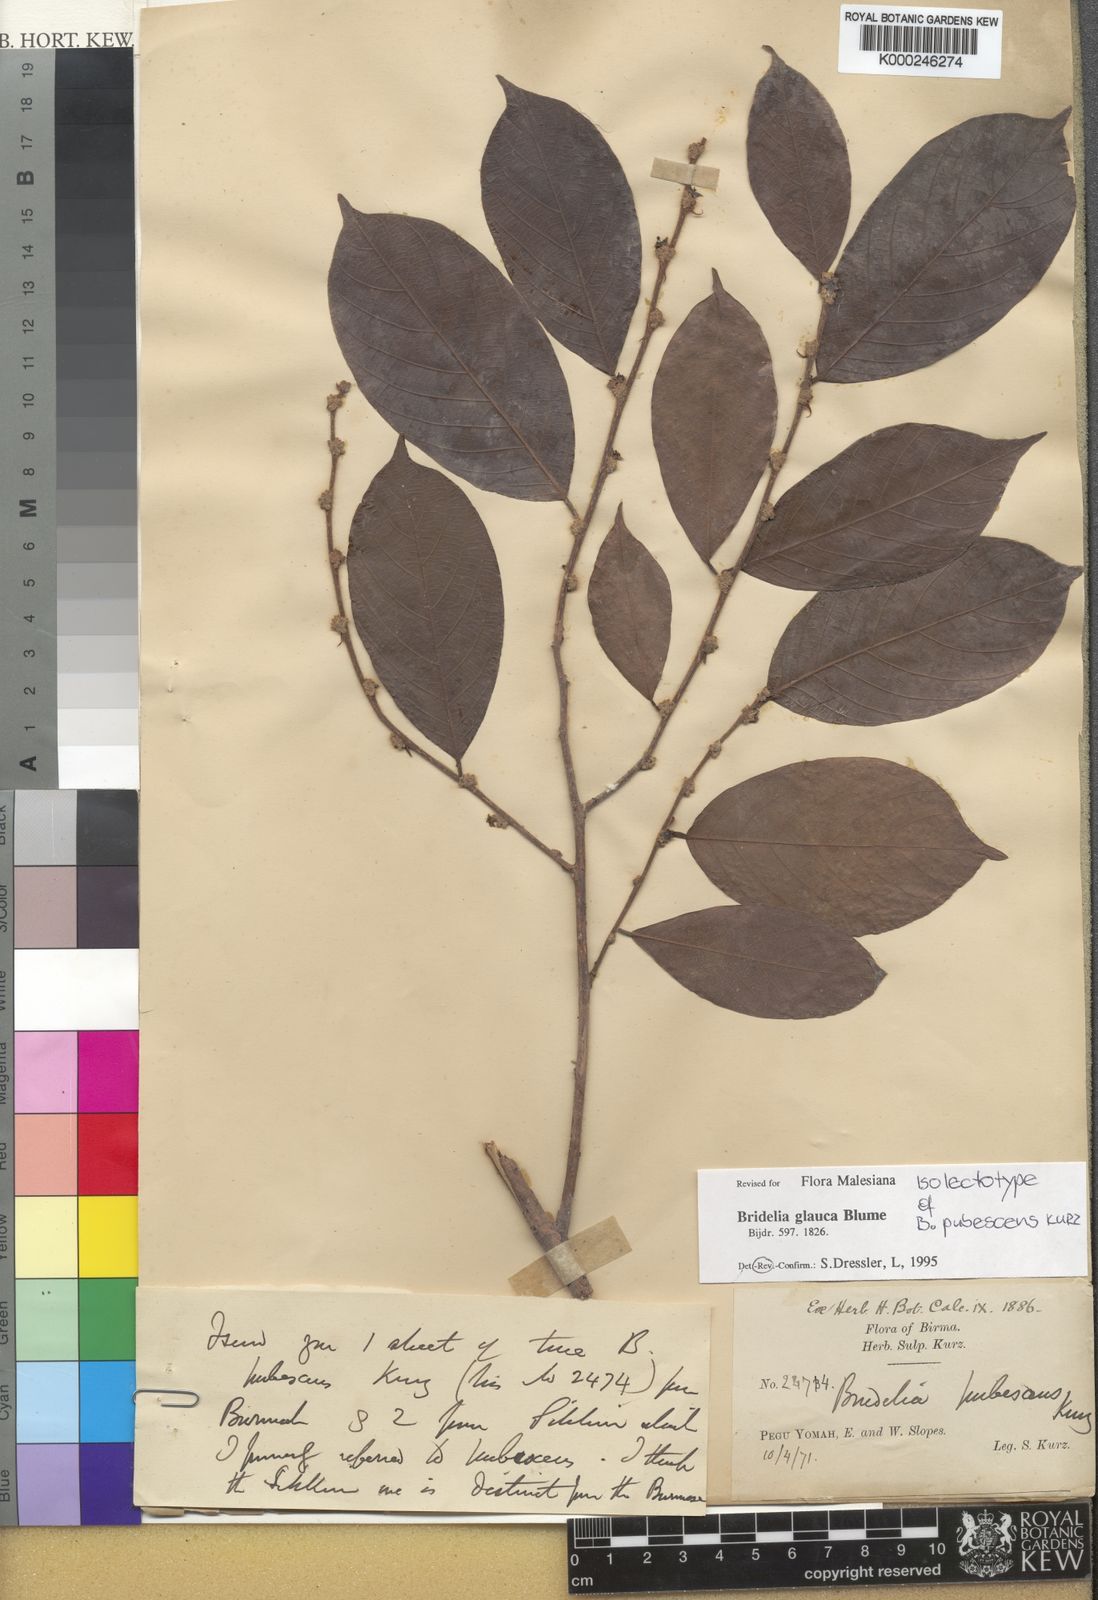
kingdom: Plantae
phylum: Tracheophyta
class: Magnoliopsida
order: Malpighiales
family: Phyllanthaceae
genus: Bridelia
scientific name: Bridelia
